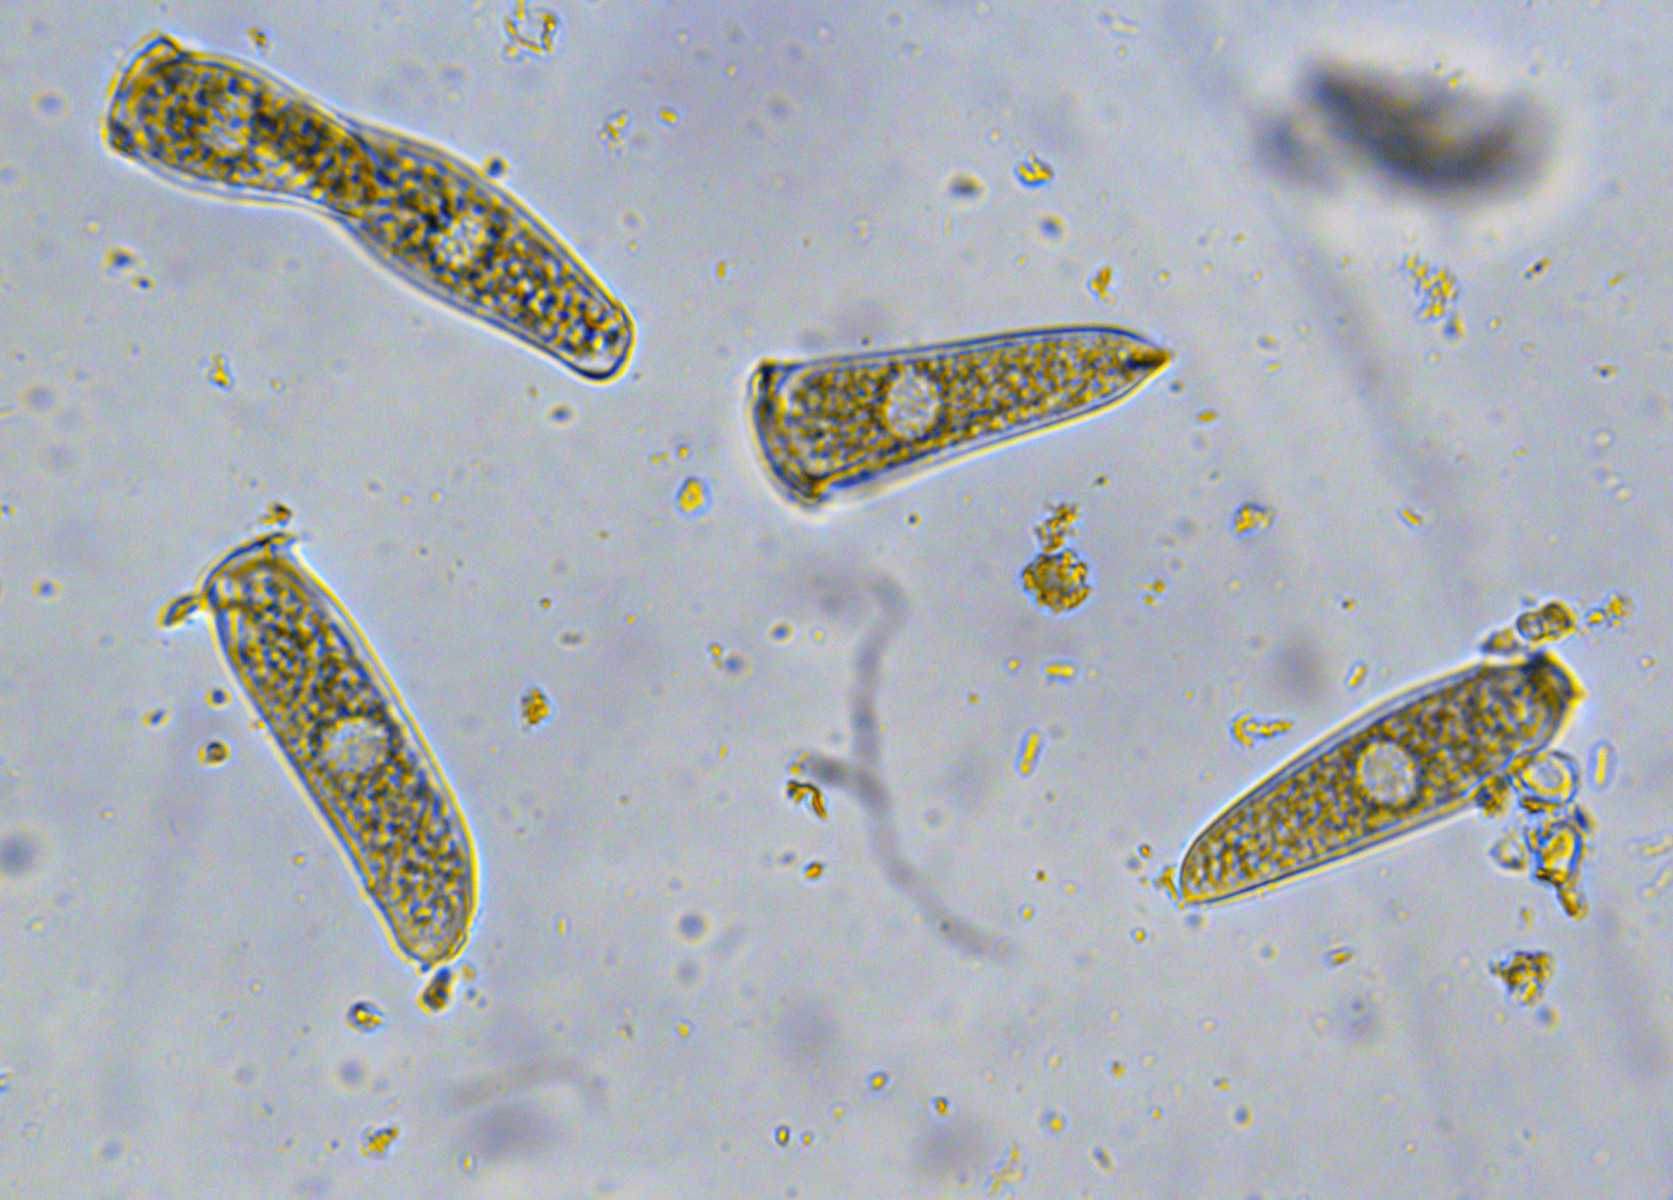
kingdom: Fungi
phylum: Basidiomycota
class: Pucciniomycetes
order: Pucciniales
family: Pucciniastraceae
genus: Melampsoridium
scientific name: Melampsoridium
